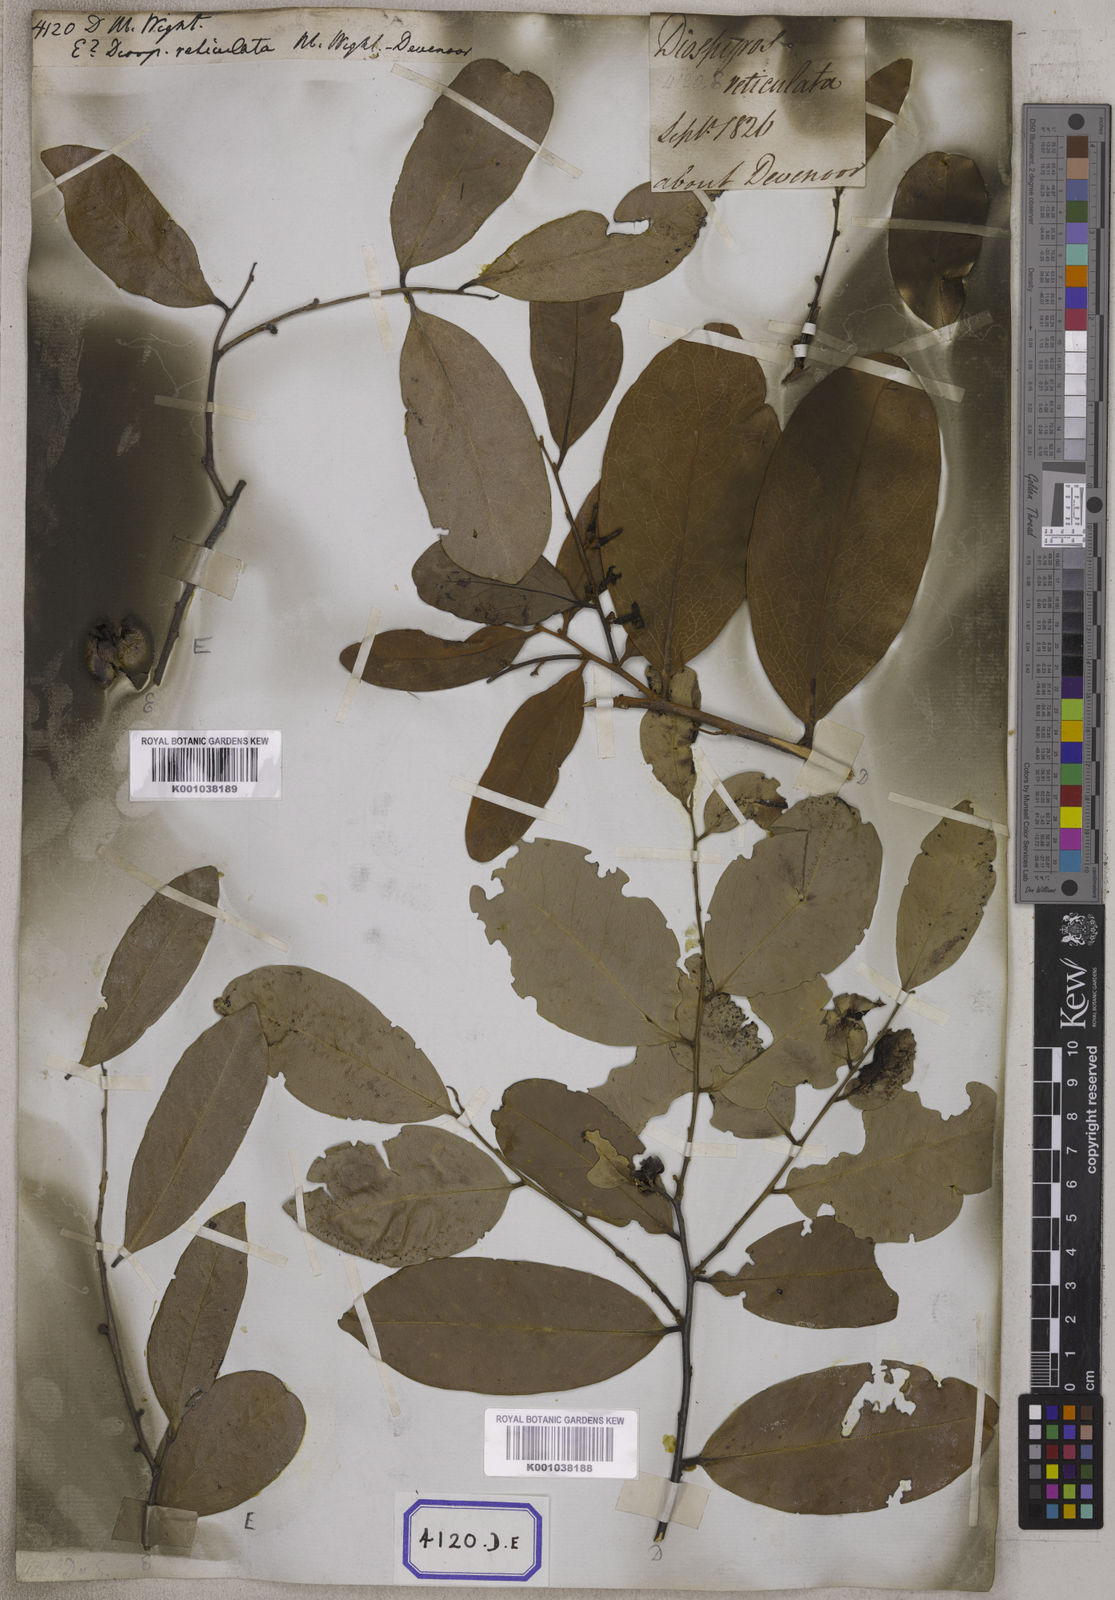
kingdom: Plantae
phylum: Tracheophyta
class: Magnoliopsida
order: Ericales
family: Ebenaceae
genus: Diospyros
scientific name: Diospyros
